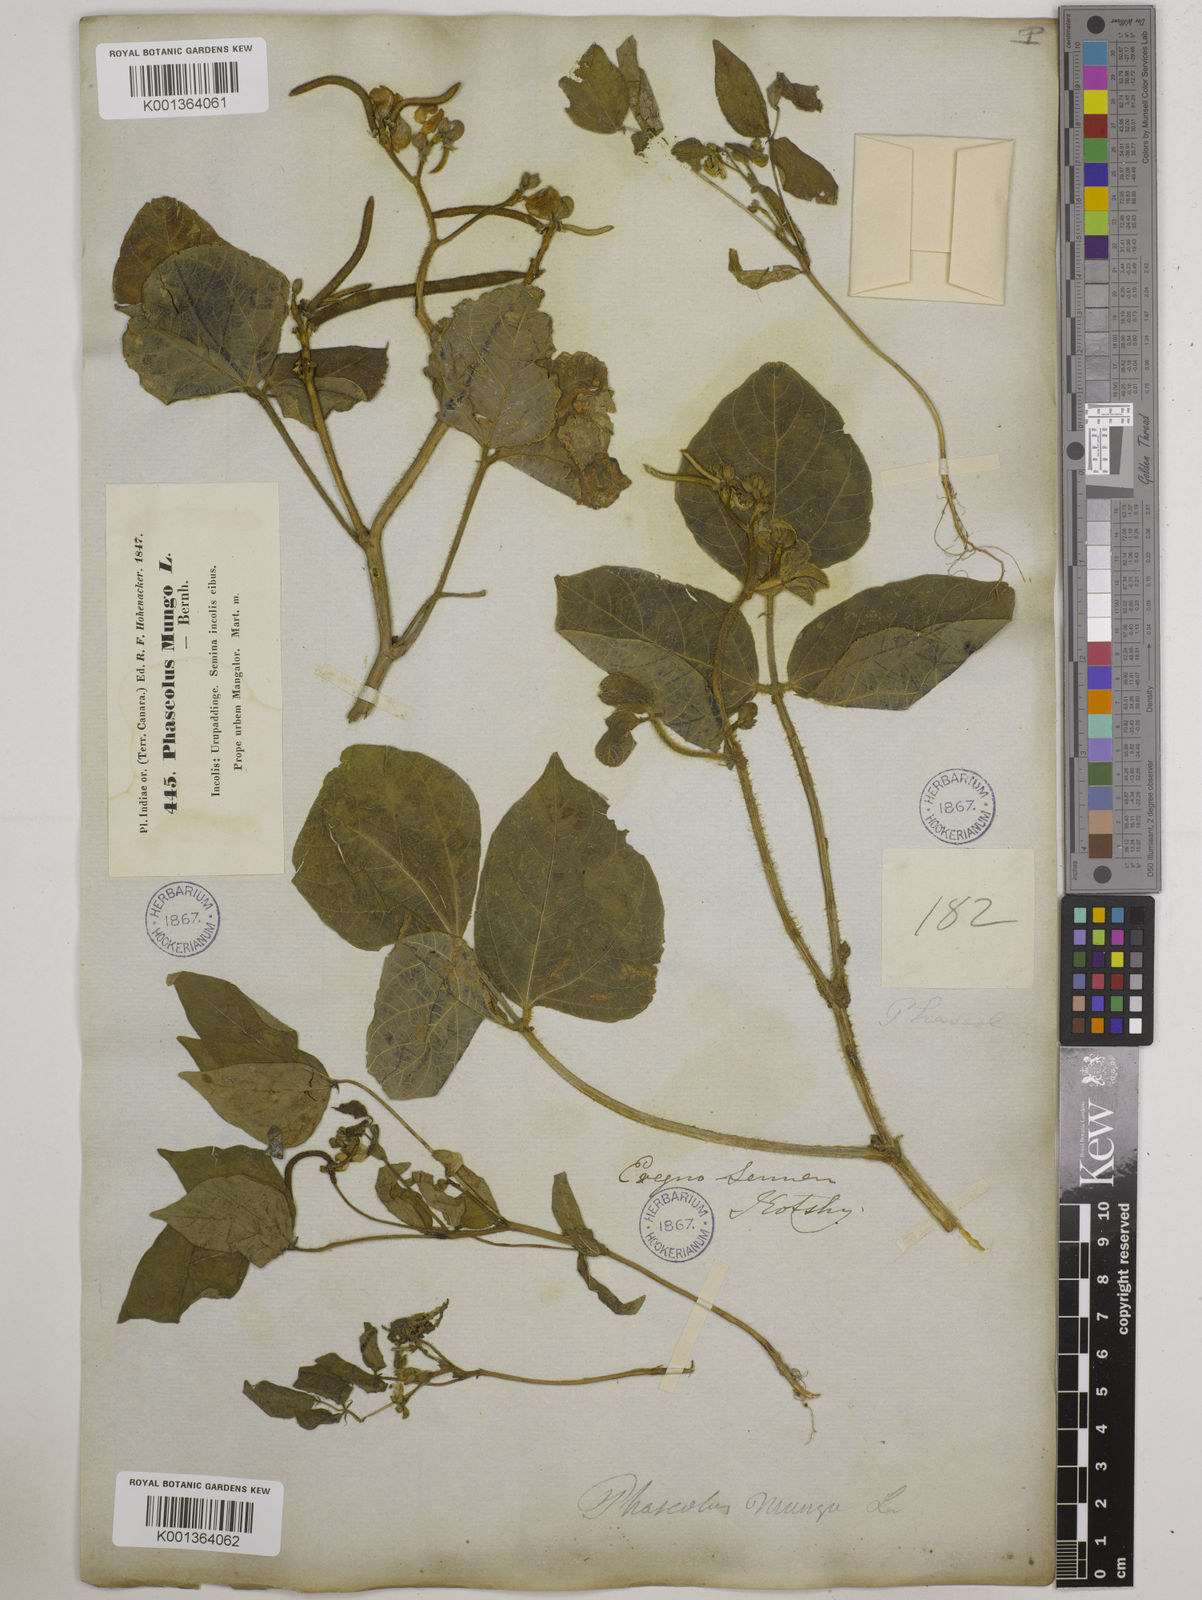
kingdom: Plantae
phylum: Tracheophyta
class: Magnoliopsida
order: Fabales
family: Fabaceae
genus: Vigna
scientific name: Vigna radiata
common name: Mung-bean
